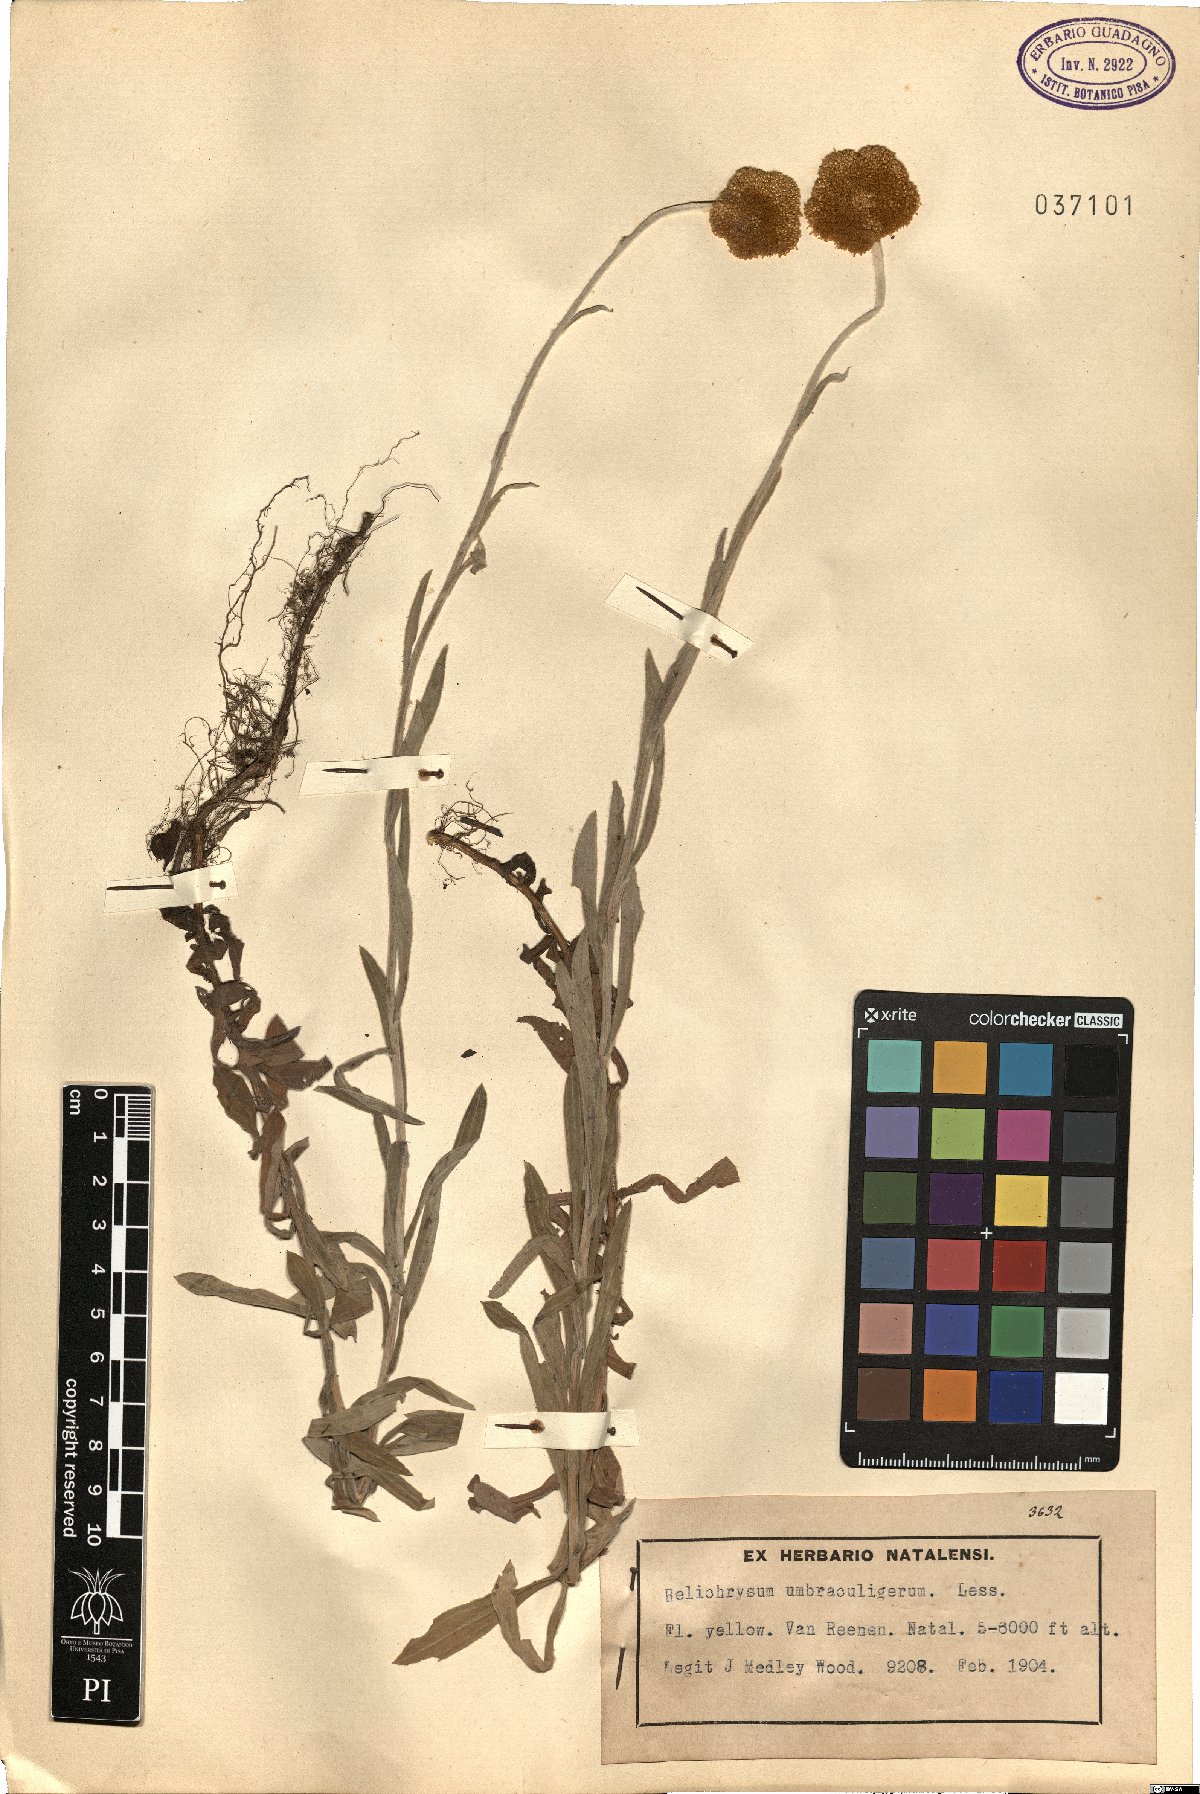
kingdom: Plantae
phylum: Tracheophyta
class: Magnoliopsida
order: Asterales
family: Asteraceae
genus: Helichrysum
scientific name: Helichrysum umbraculigerum
